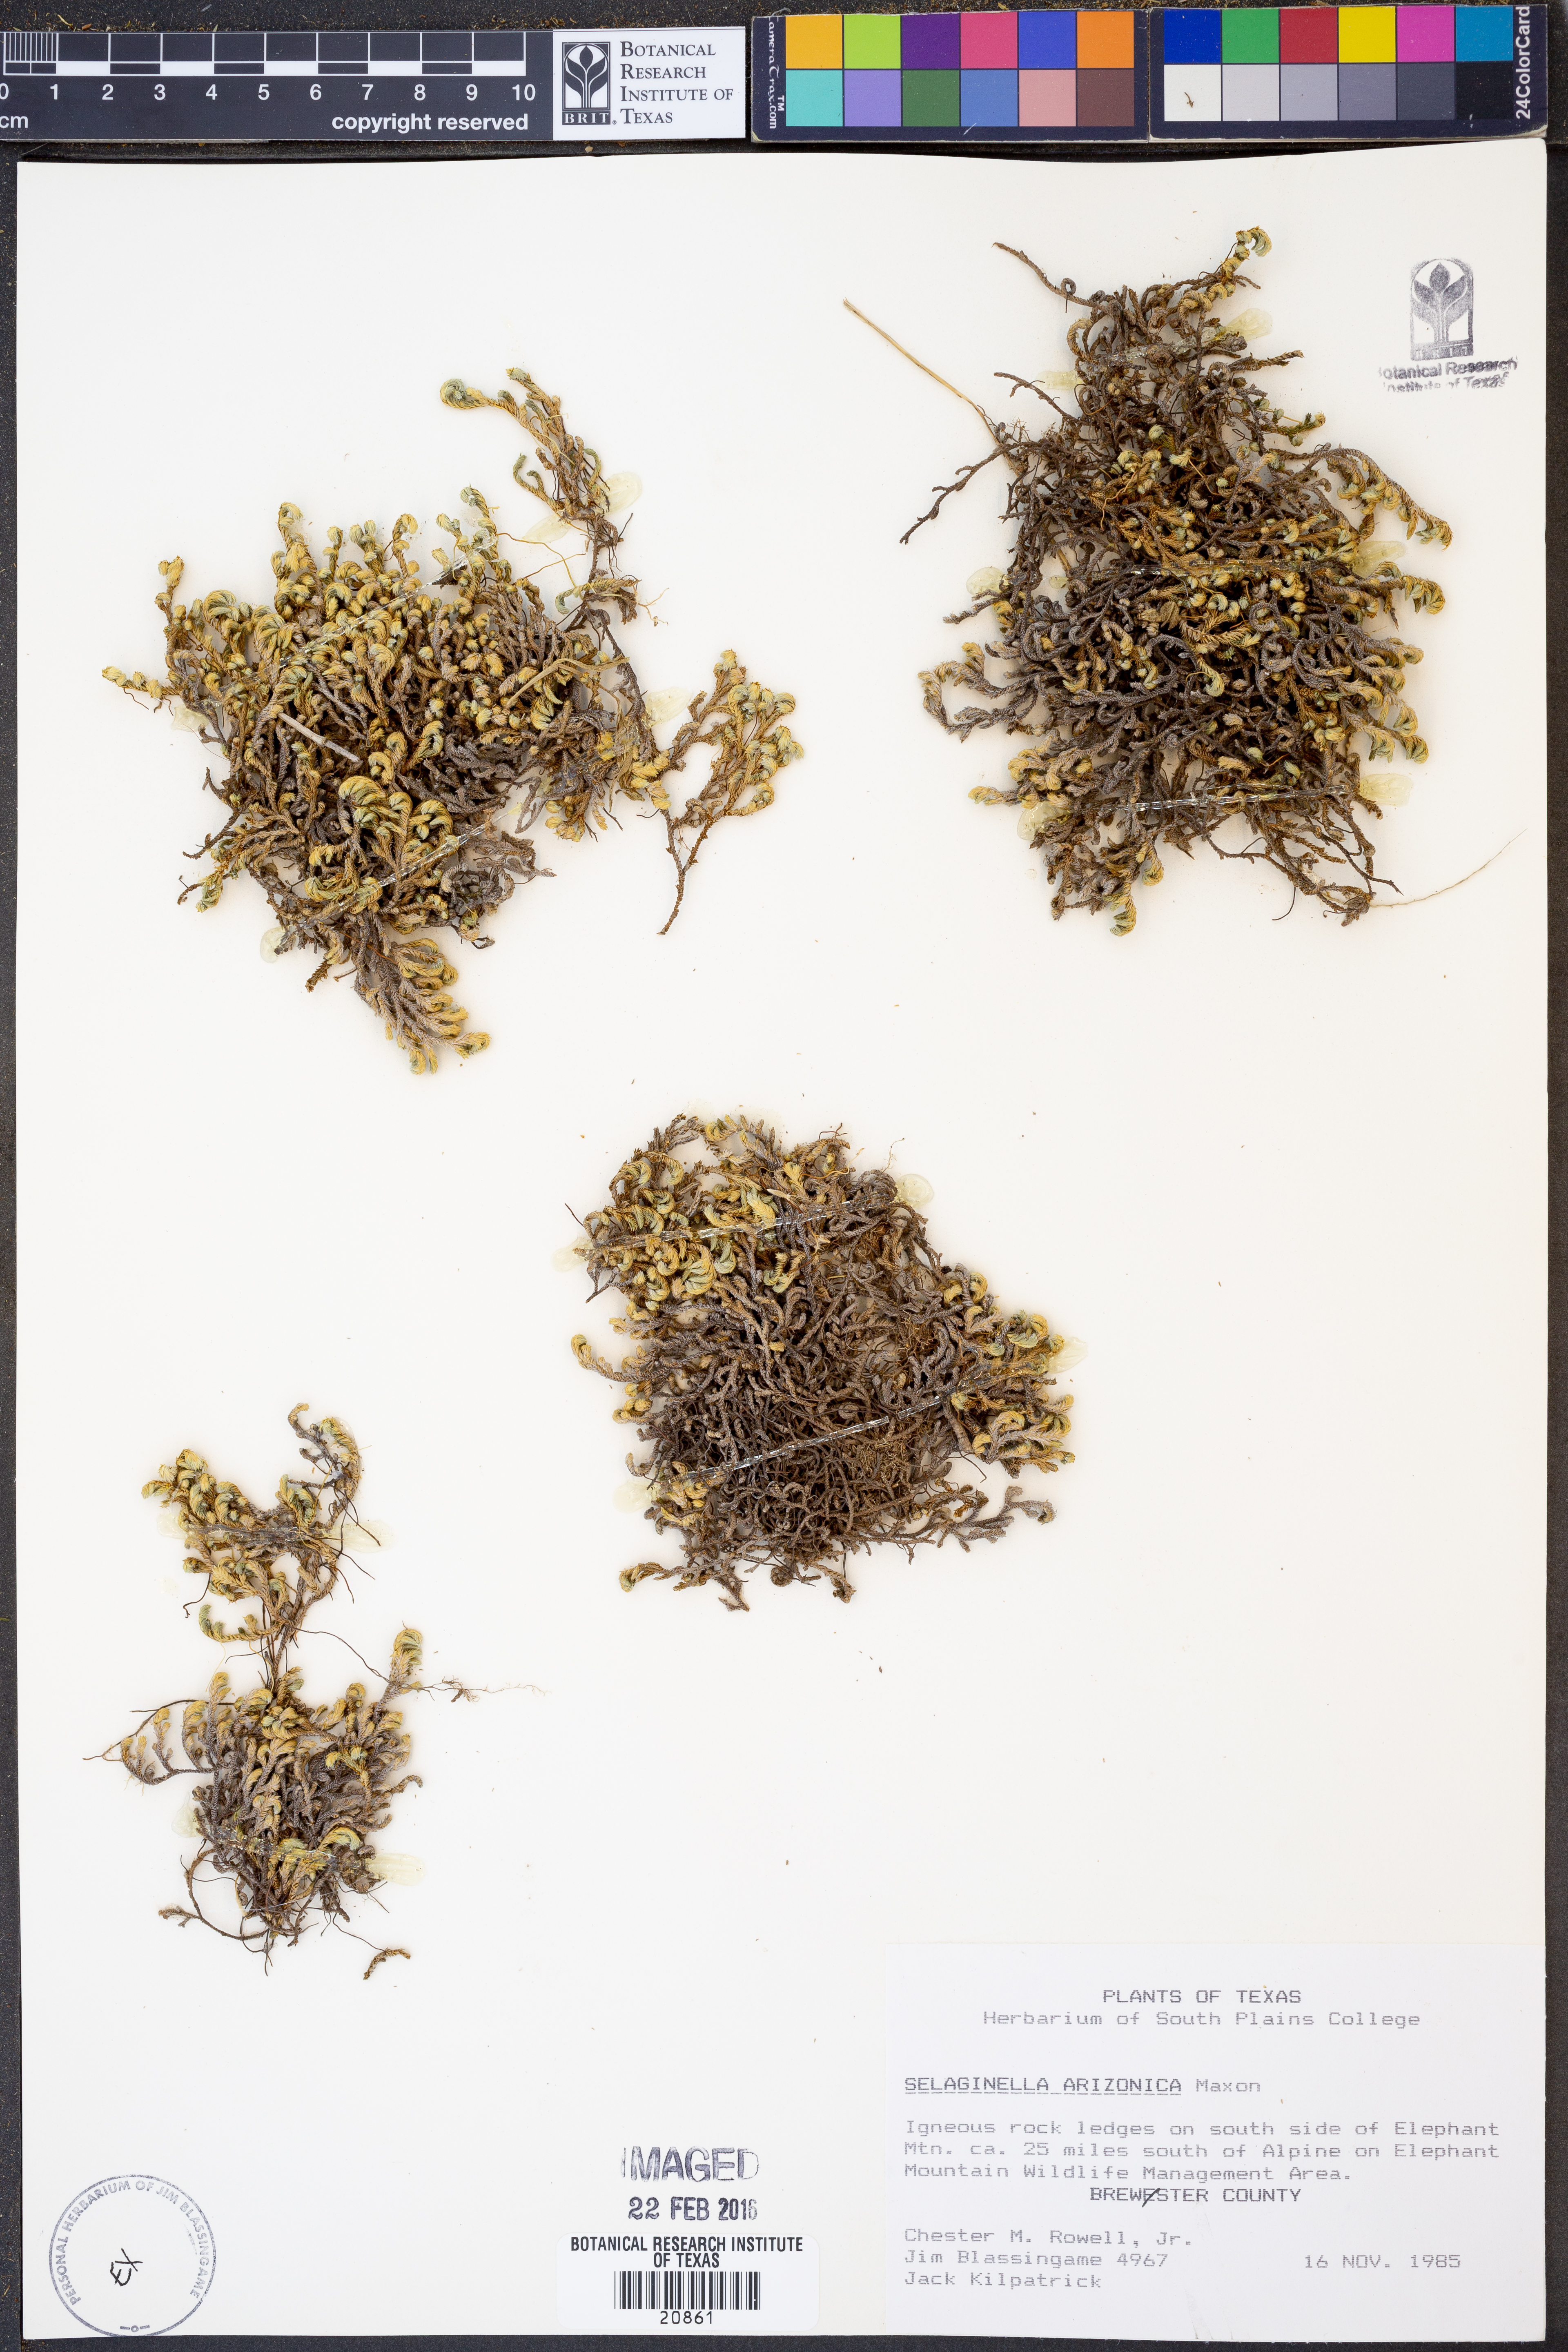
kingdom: Plantae
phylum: Tracheophyta
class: Lycopodiopsida
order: Selaginellales
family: Selaginellaceae
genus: Selaginella
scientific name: Selaginella arizonica
